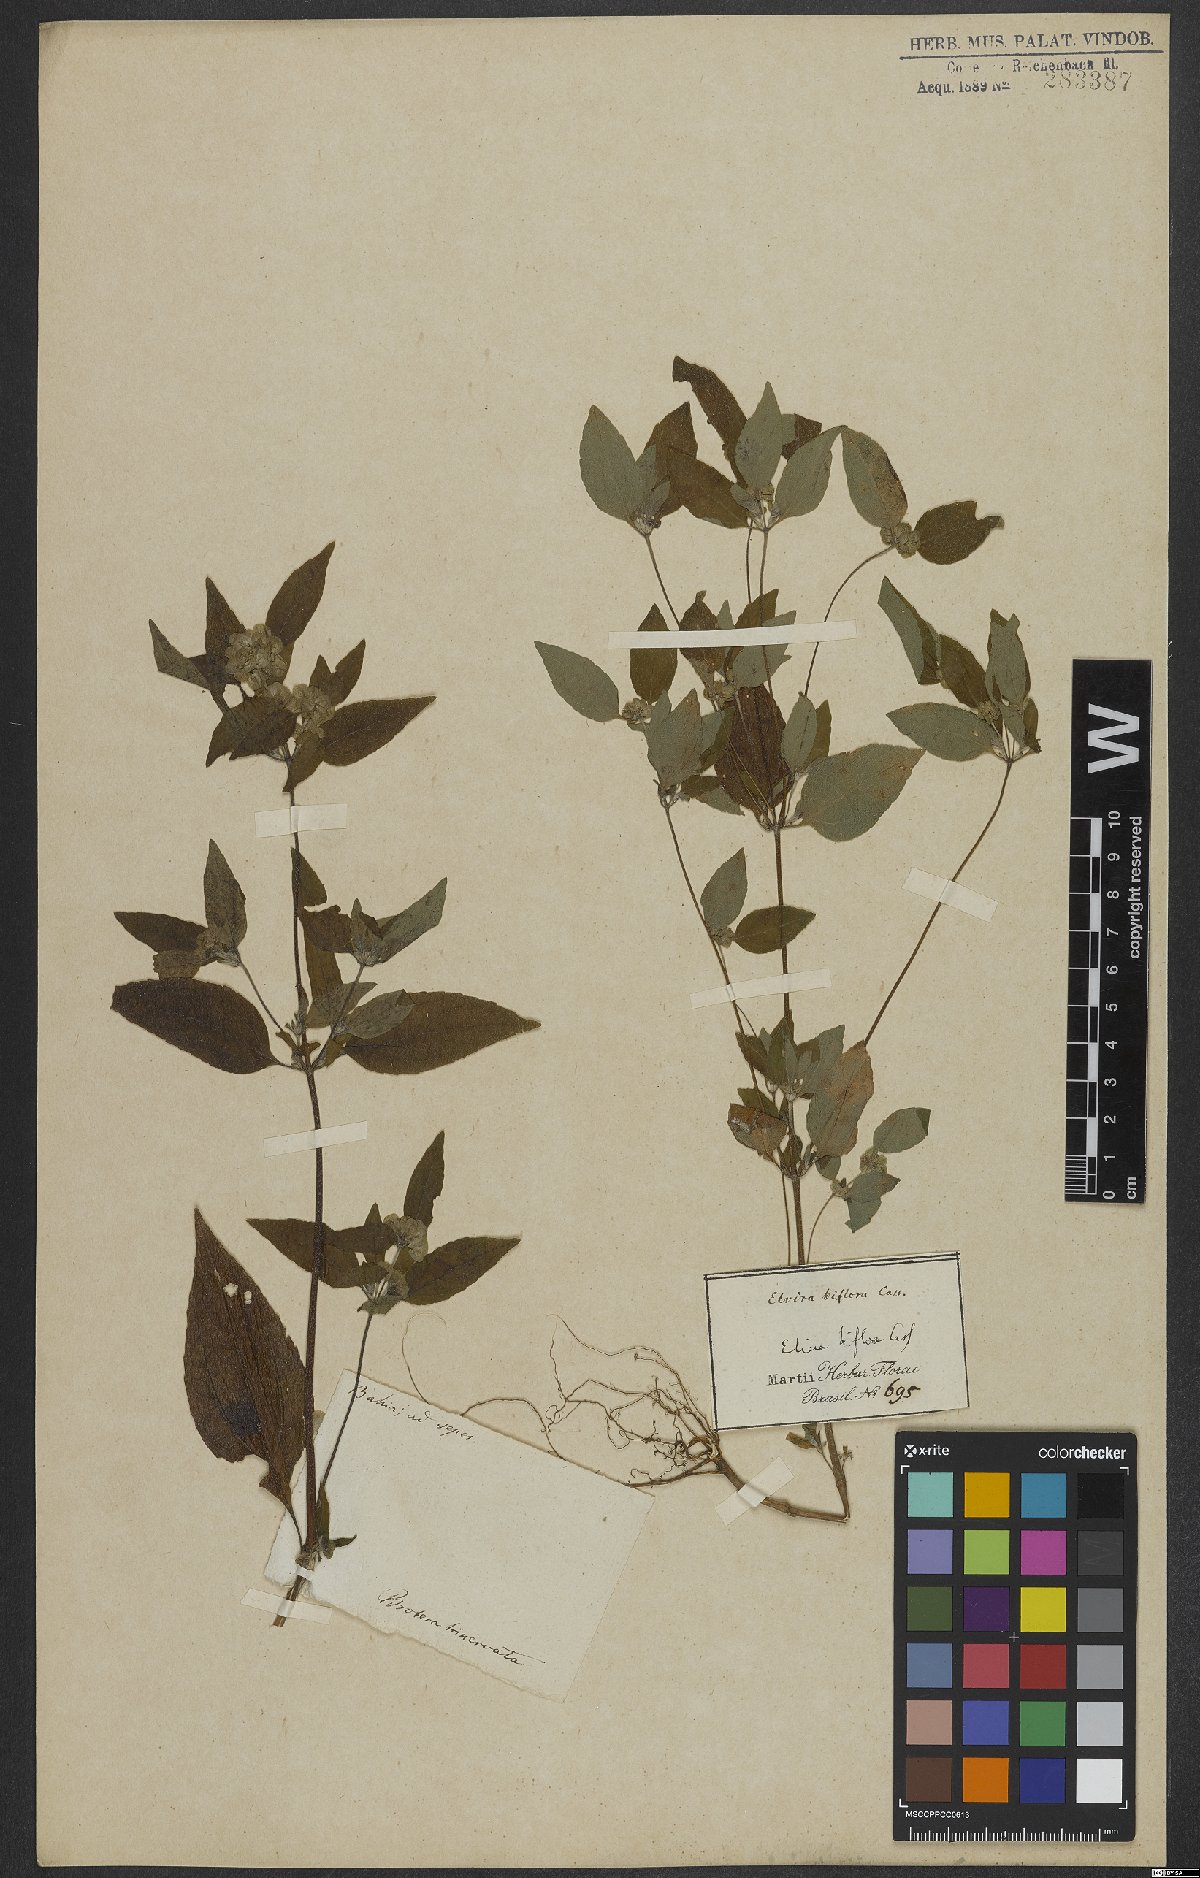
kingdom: Plantae
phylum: Tracheophyta
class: Magnoliopsida
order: Asterales
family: Asteraceae
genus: Delilia
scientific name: Delilia biflora
